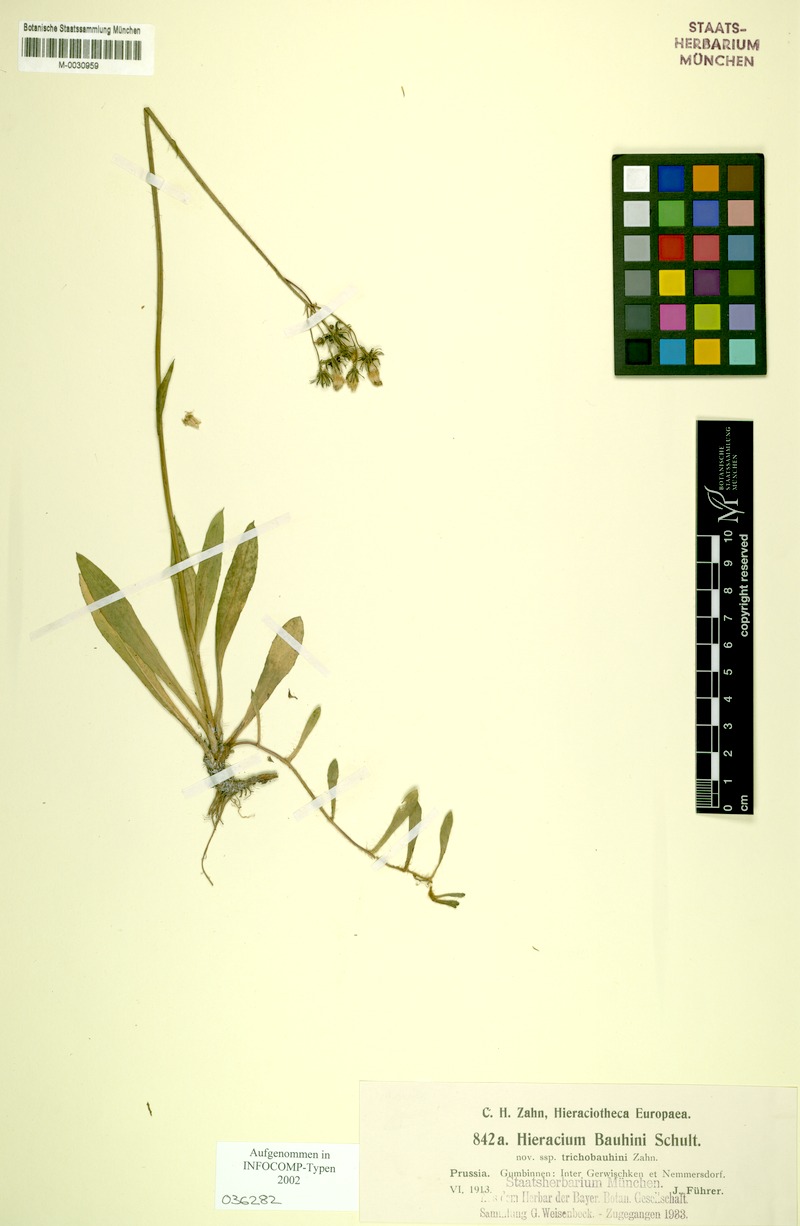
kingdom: Plantae
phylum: Tracheophyta
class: Magnoliopsida
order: Asterales
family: Asteraceae
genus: Pilosella
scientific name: Pilosella bauhini
